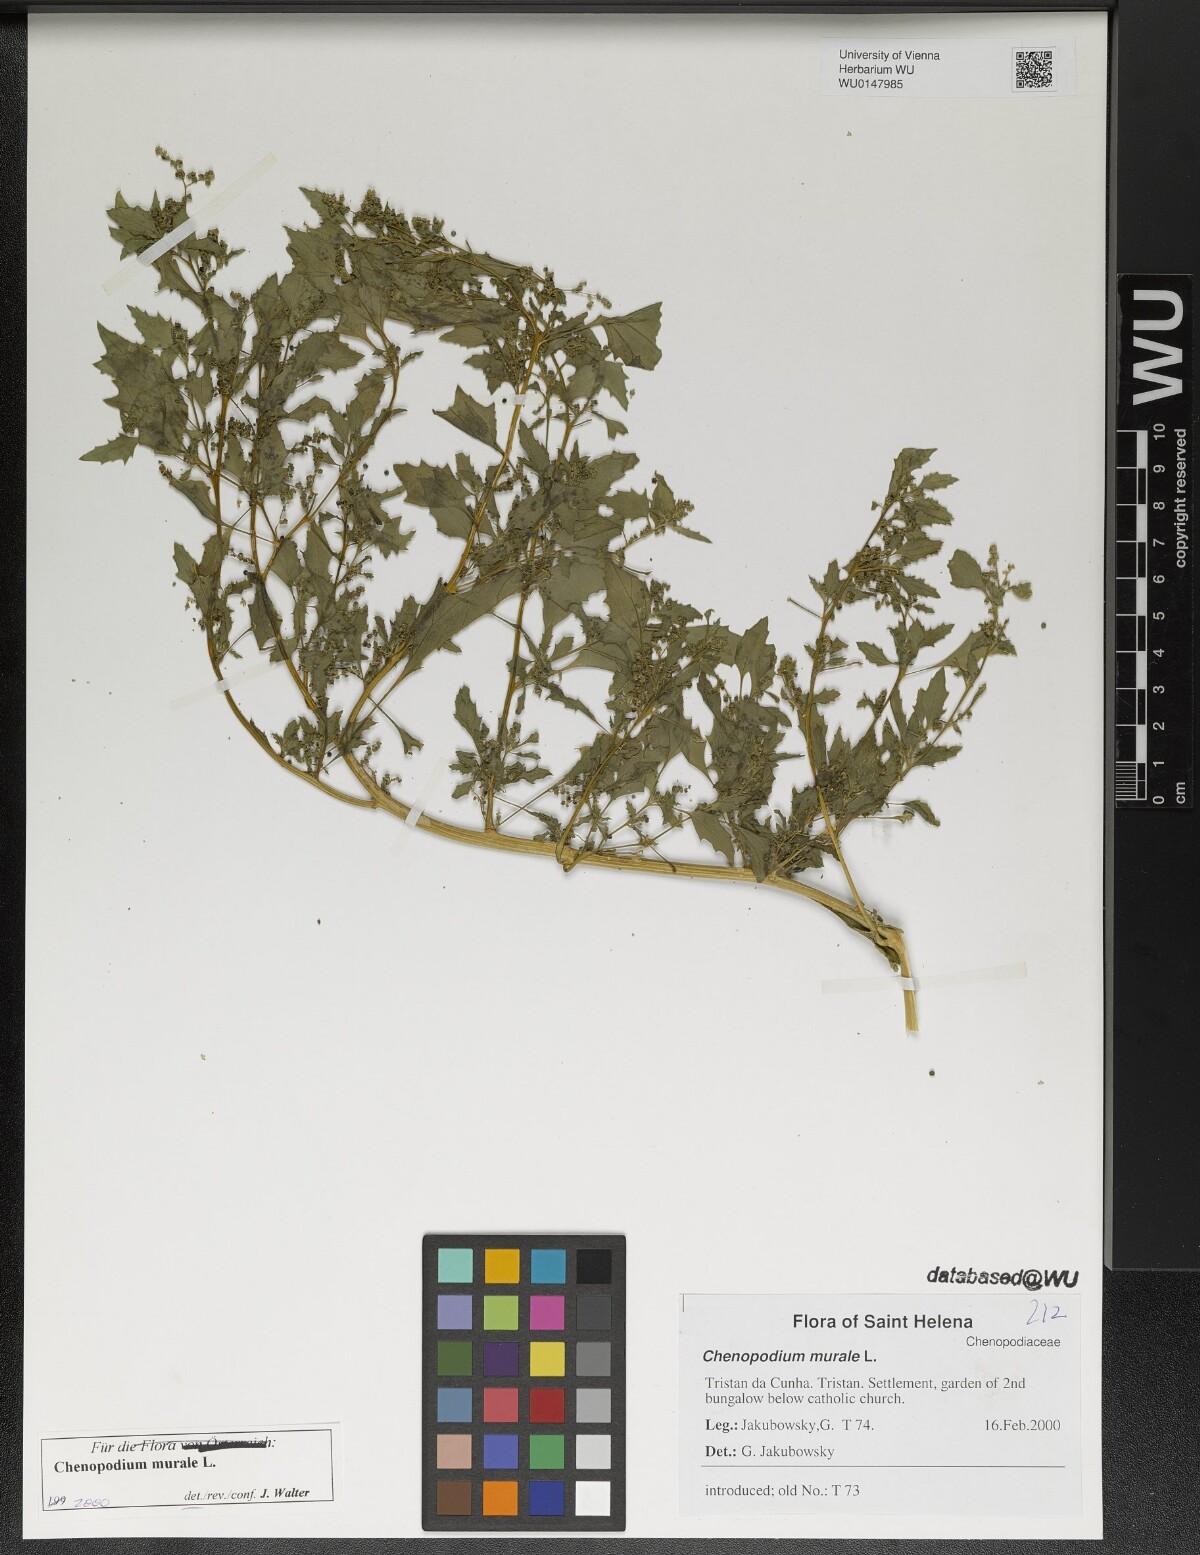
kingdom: Plantae
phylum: Tracheophyta
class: Magnoliopsida
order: Caryophyllales
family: Amaranthaceae
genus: Chenopodiastrum
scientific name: Chenopodiastrum murale
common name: Sowbane
